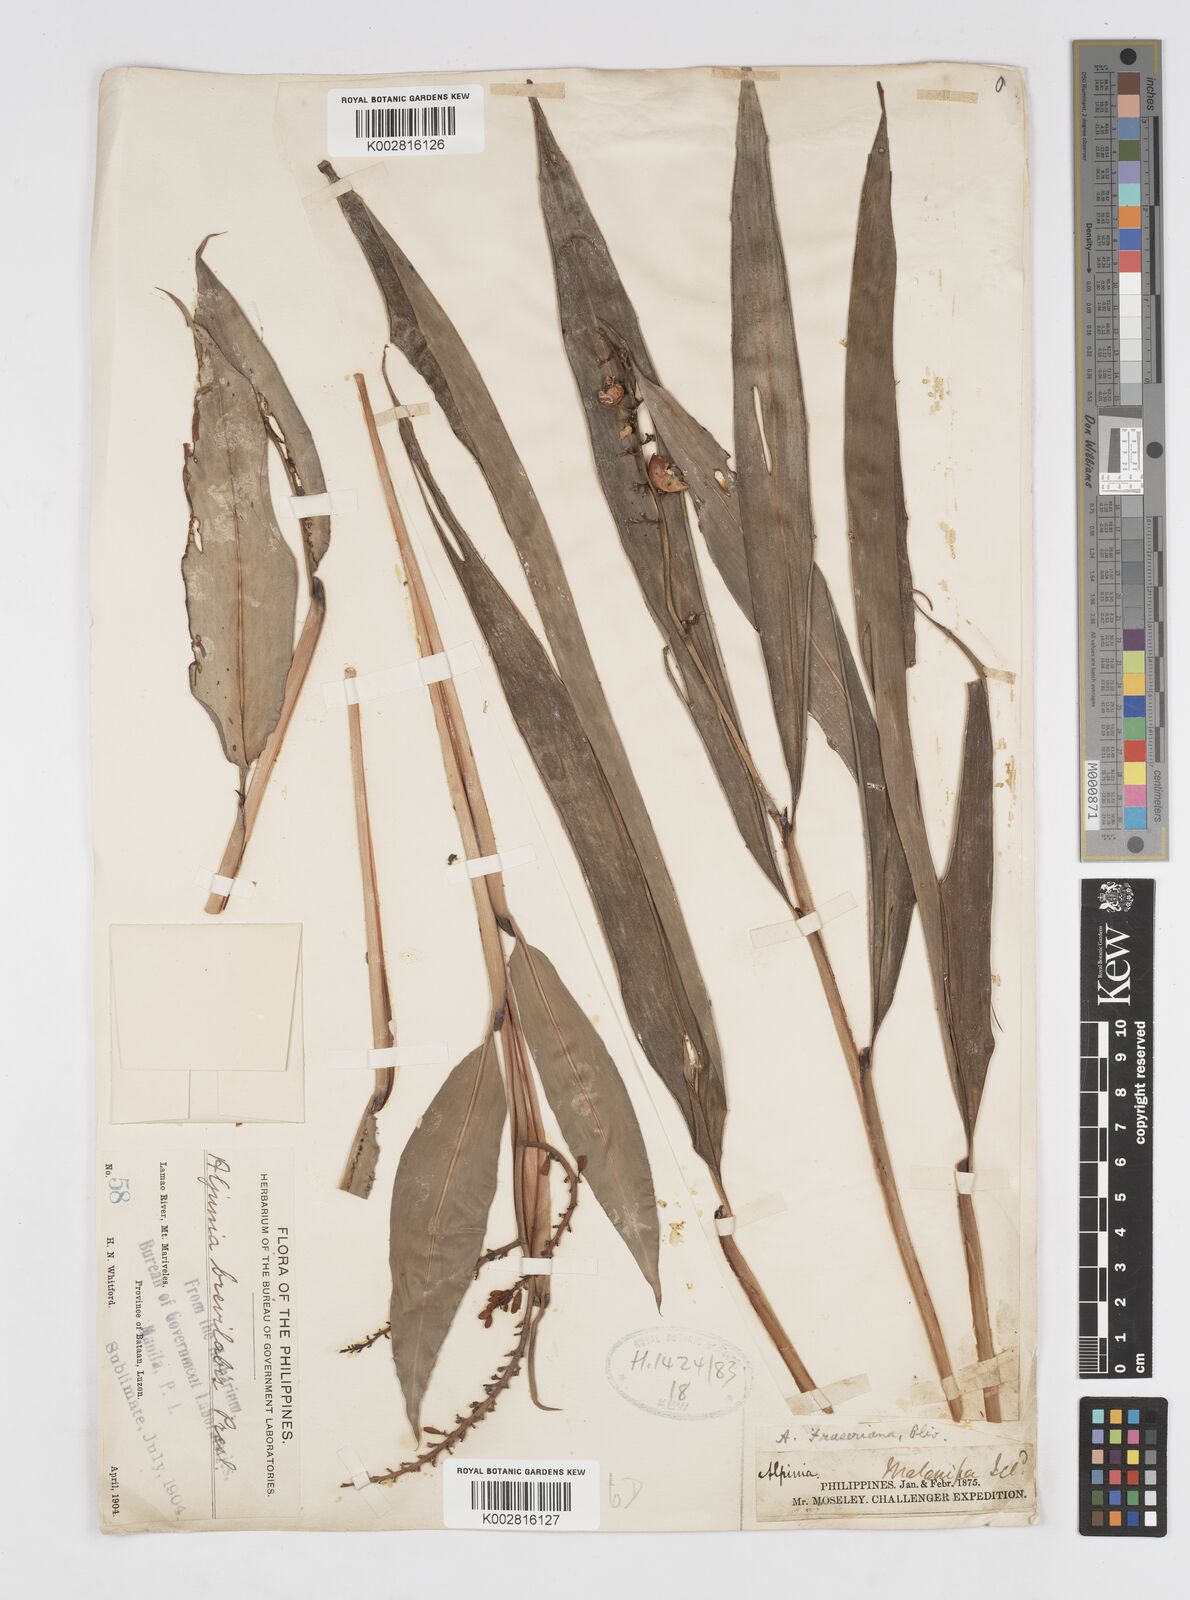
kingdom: Plantae
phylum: Tracheophyta
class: Liliopsida
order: Zingiberales
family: Zingiberaceae
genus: Alpinia
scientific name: Alpinia brevilabris
